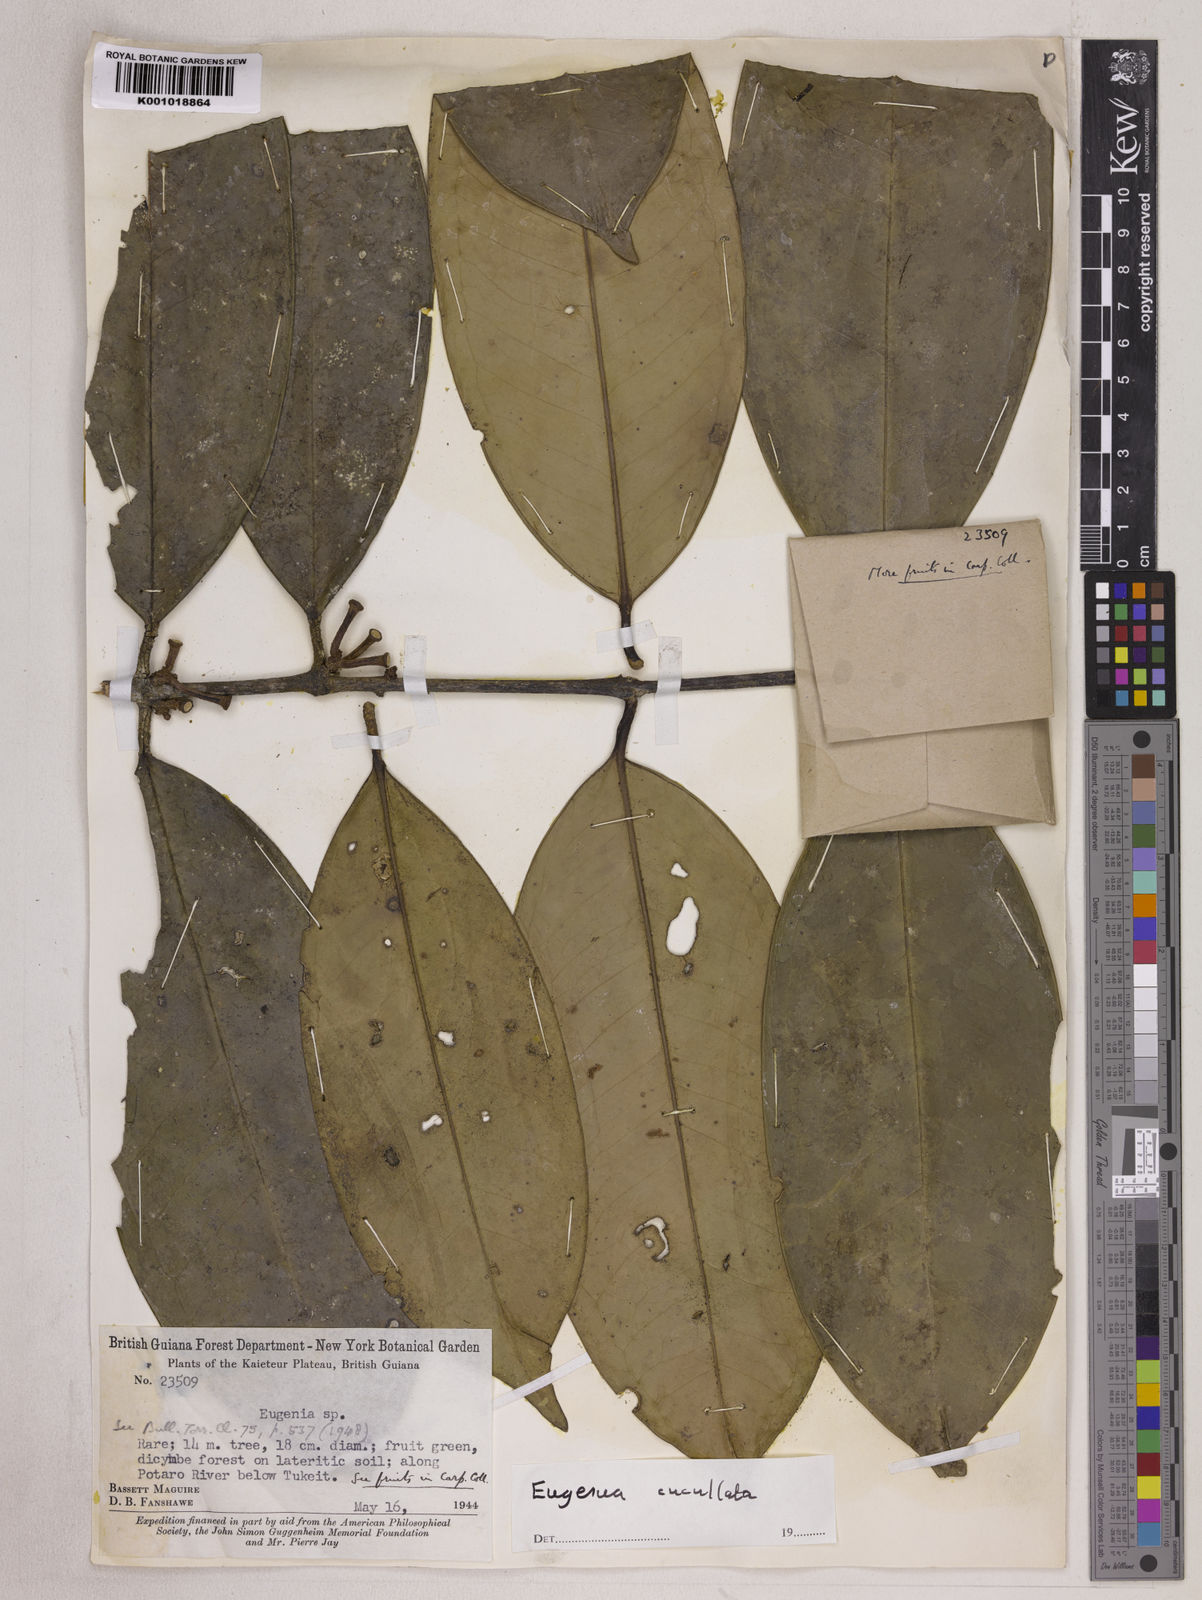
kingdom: Plantae
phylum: Tracheophyta
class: Magnoliopsida
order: Myrtales
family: Myrtaceae
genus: Eugenia
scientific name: Eugenia cucullata
